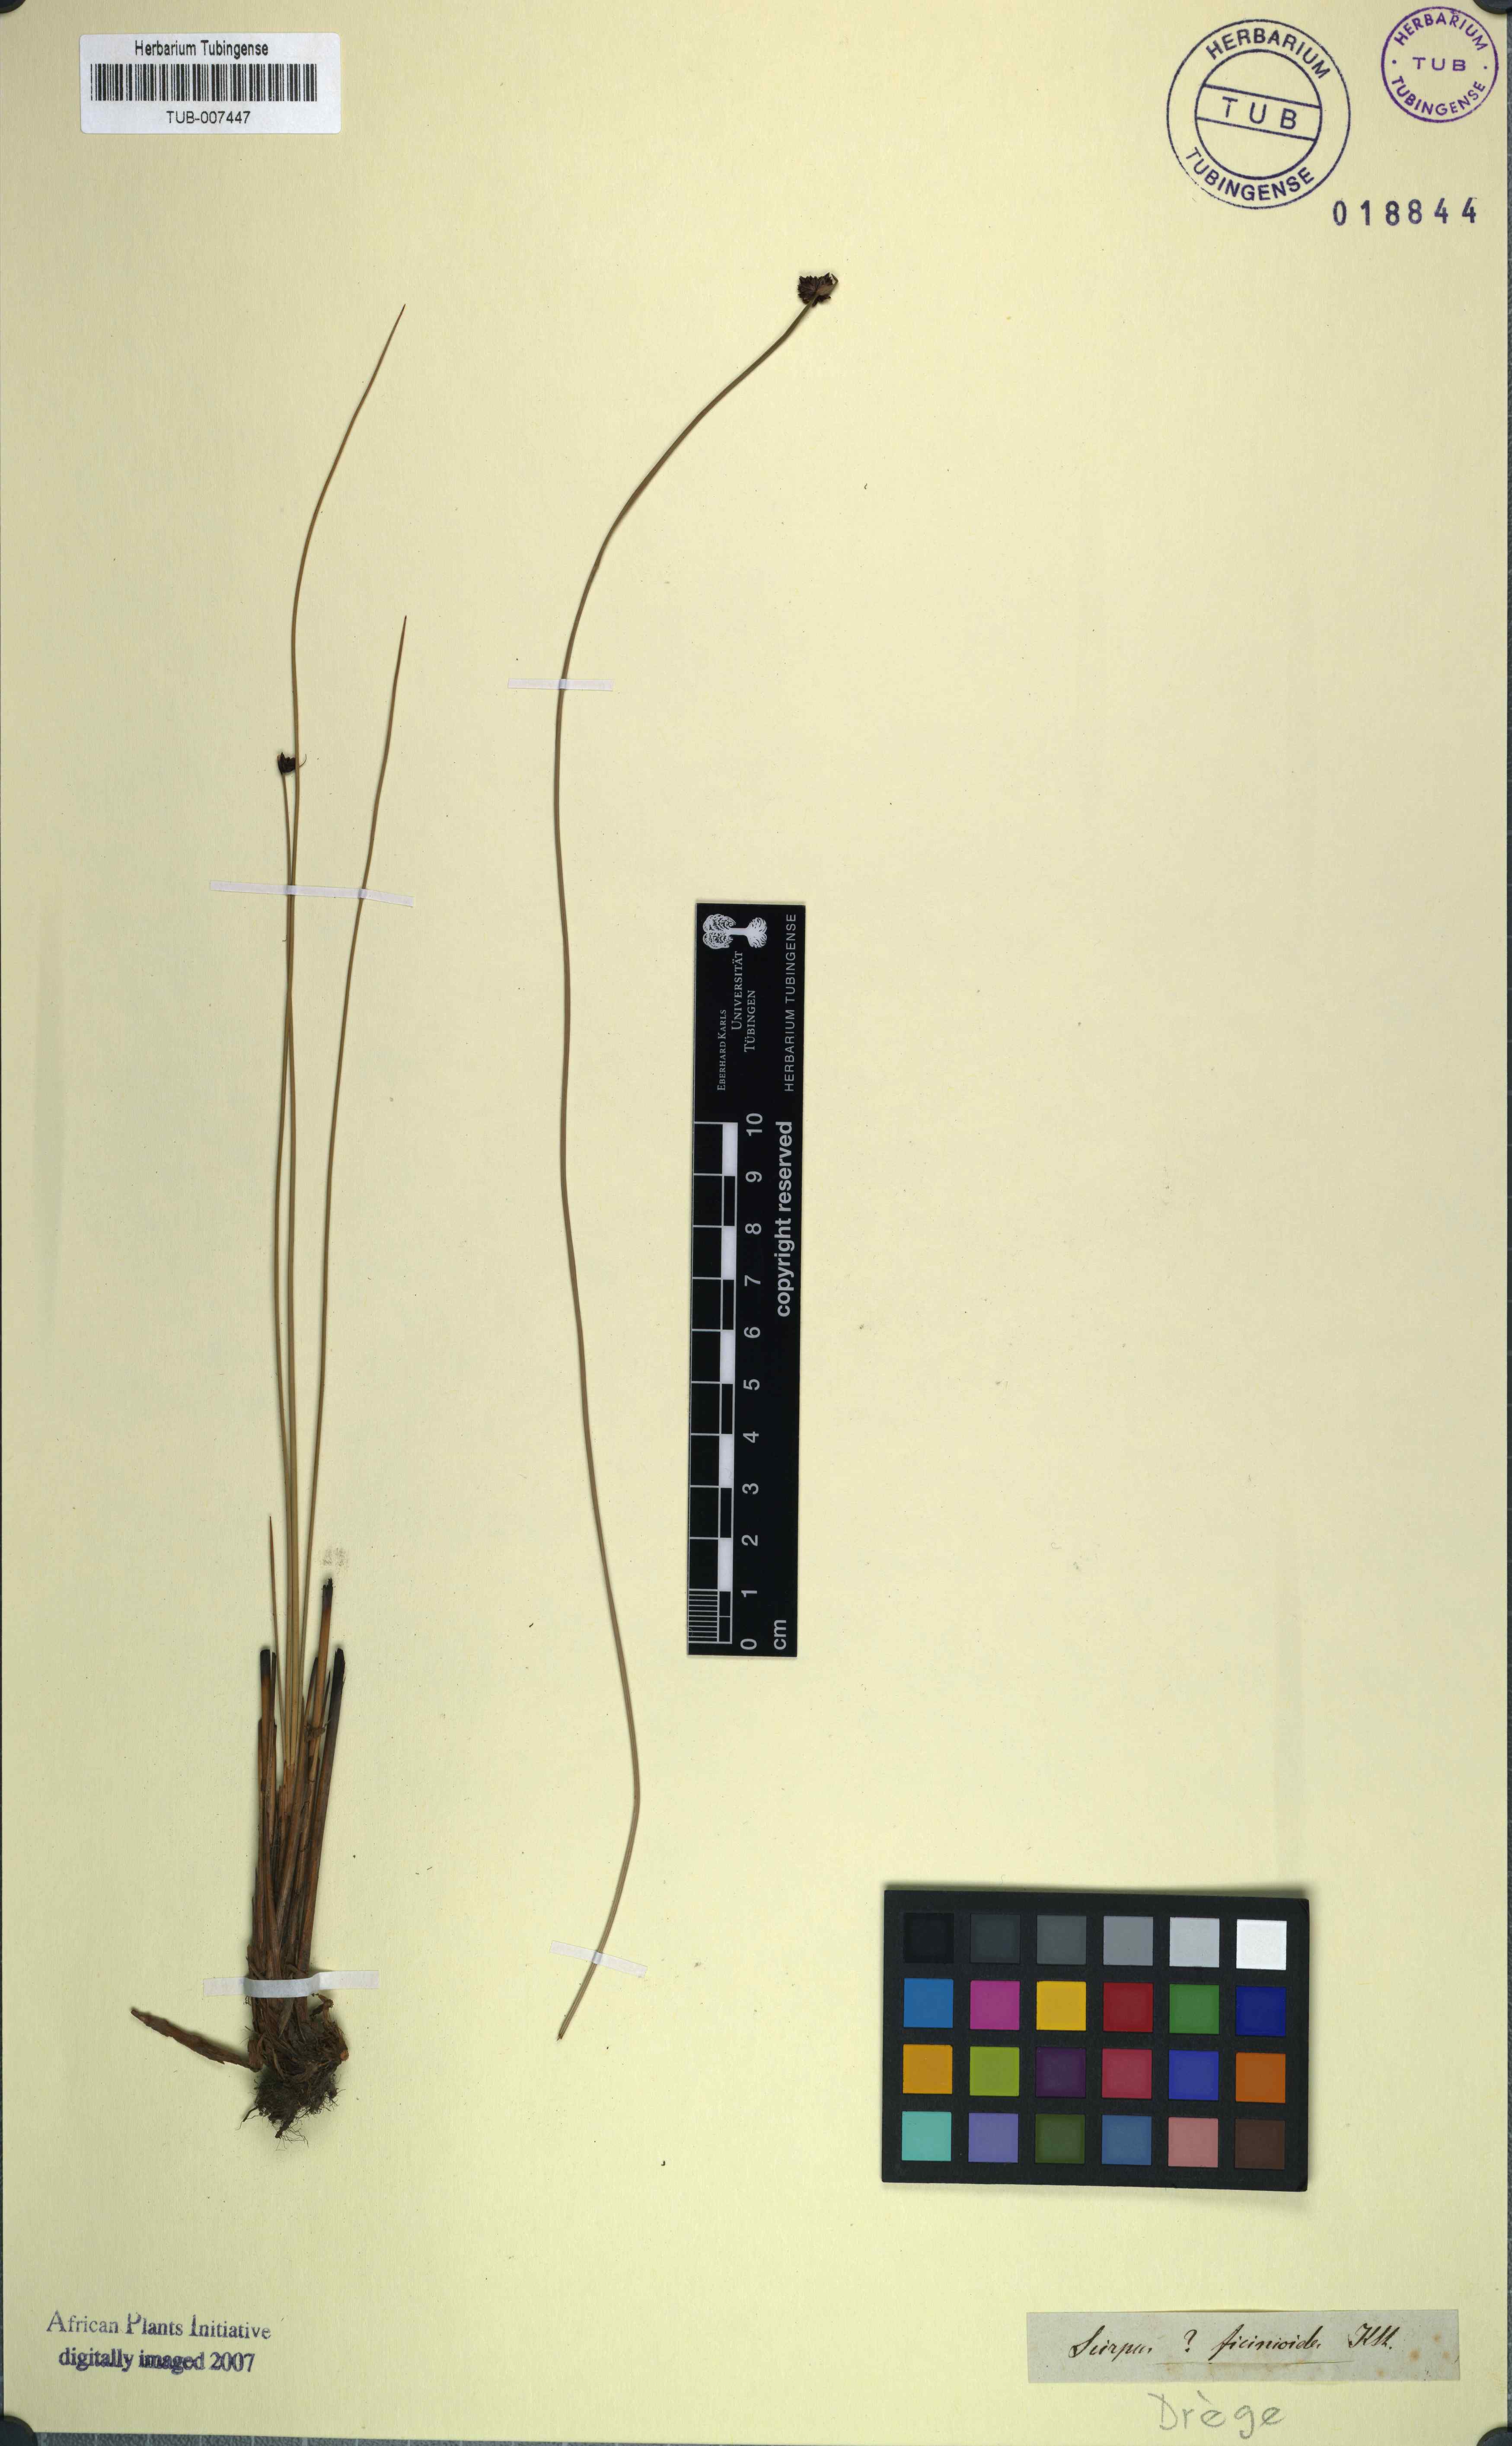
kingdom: Plantae
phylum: Tracheophyta
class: Liliopsida
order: Poales
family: Cyperaceae
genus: Dracoscirpoides
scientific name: Dracoscirpoides ficinioides
